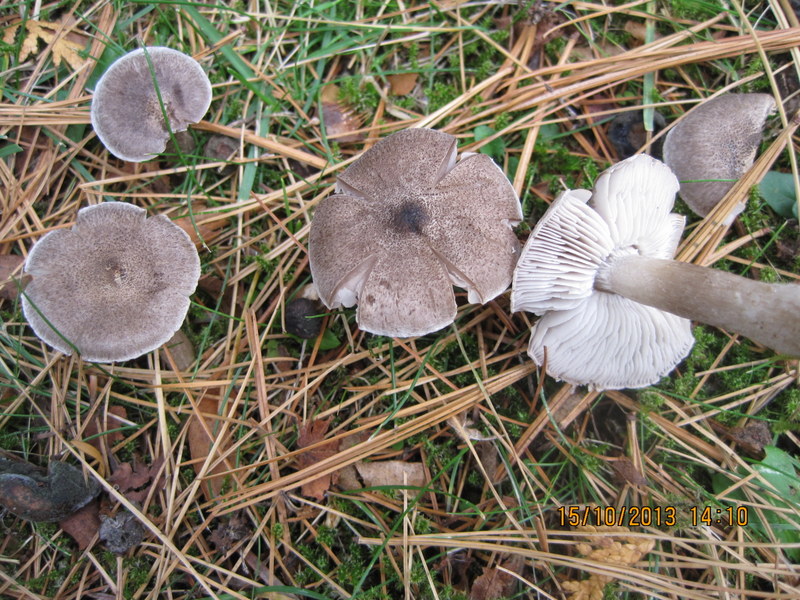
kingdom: Fungi
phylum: Basidiomycota
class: Agaricomycetes
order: Agaricales
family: Tricholomataceae
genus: Tricholoma
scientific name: Tricholoma terreum
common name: jordfarvet ridderhat
